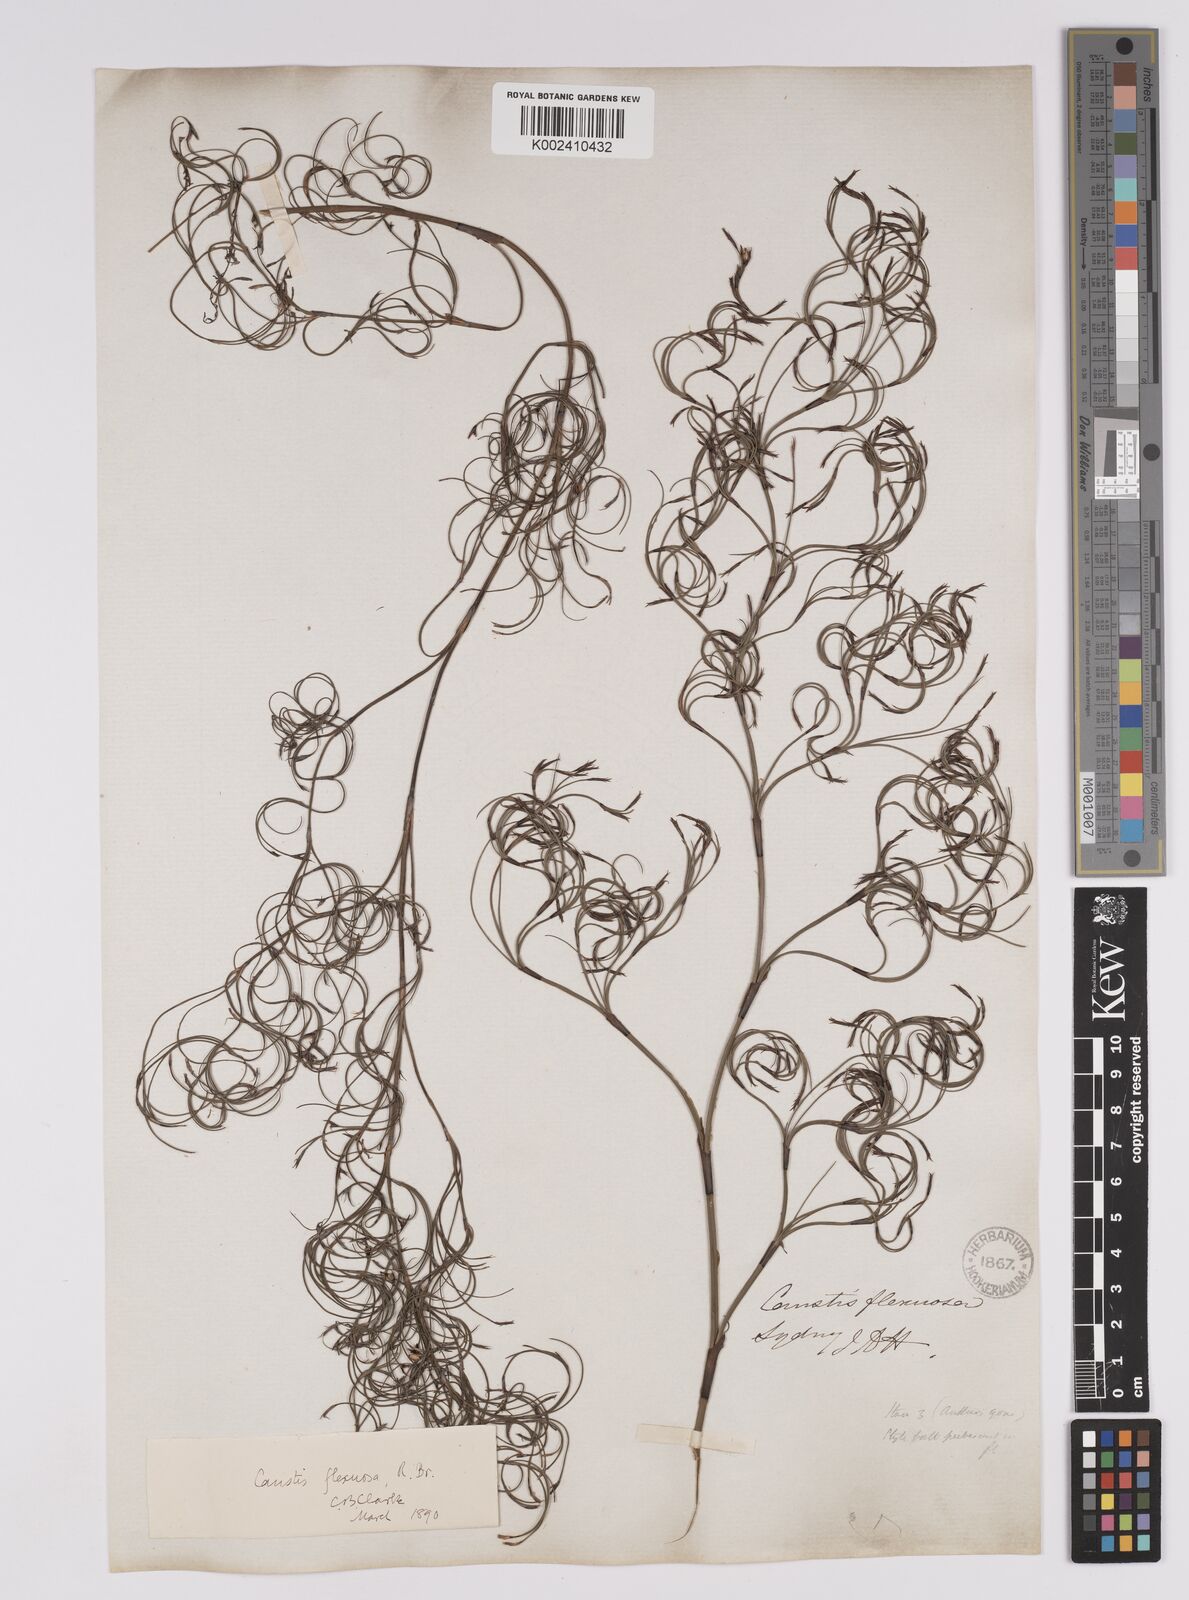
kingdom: Plantae
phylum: Tracheophyta
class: Liliopsida
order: Poales
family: Cyperaceae
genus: Caustis
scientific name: Caustis flexuosa
